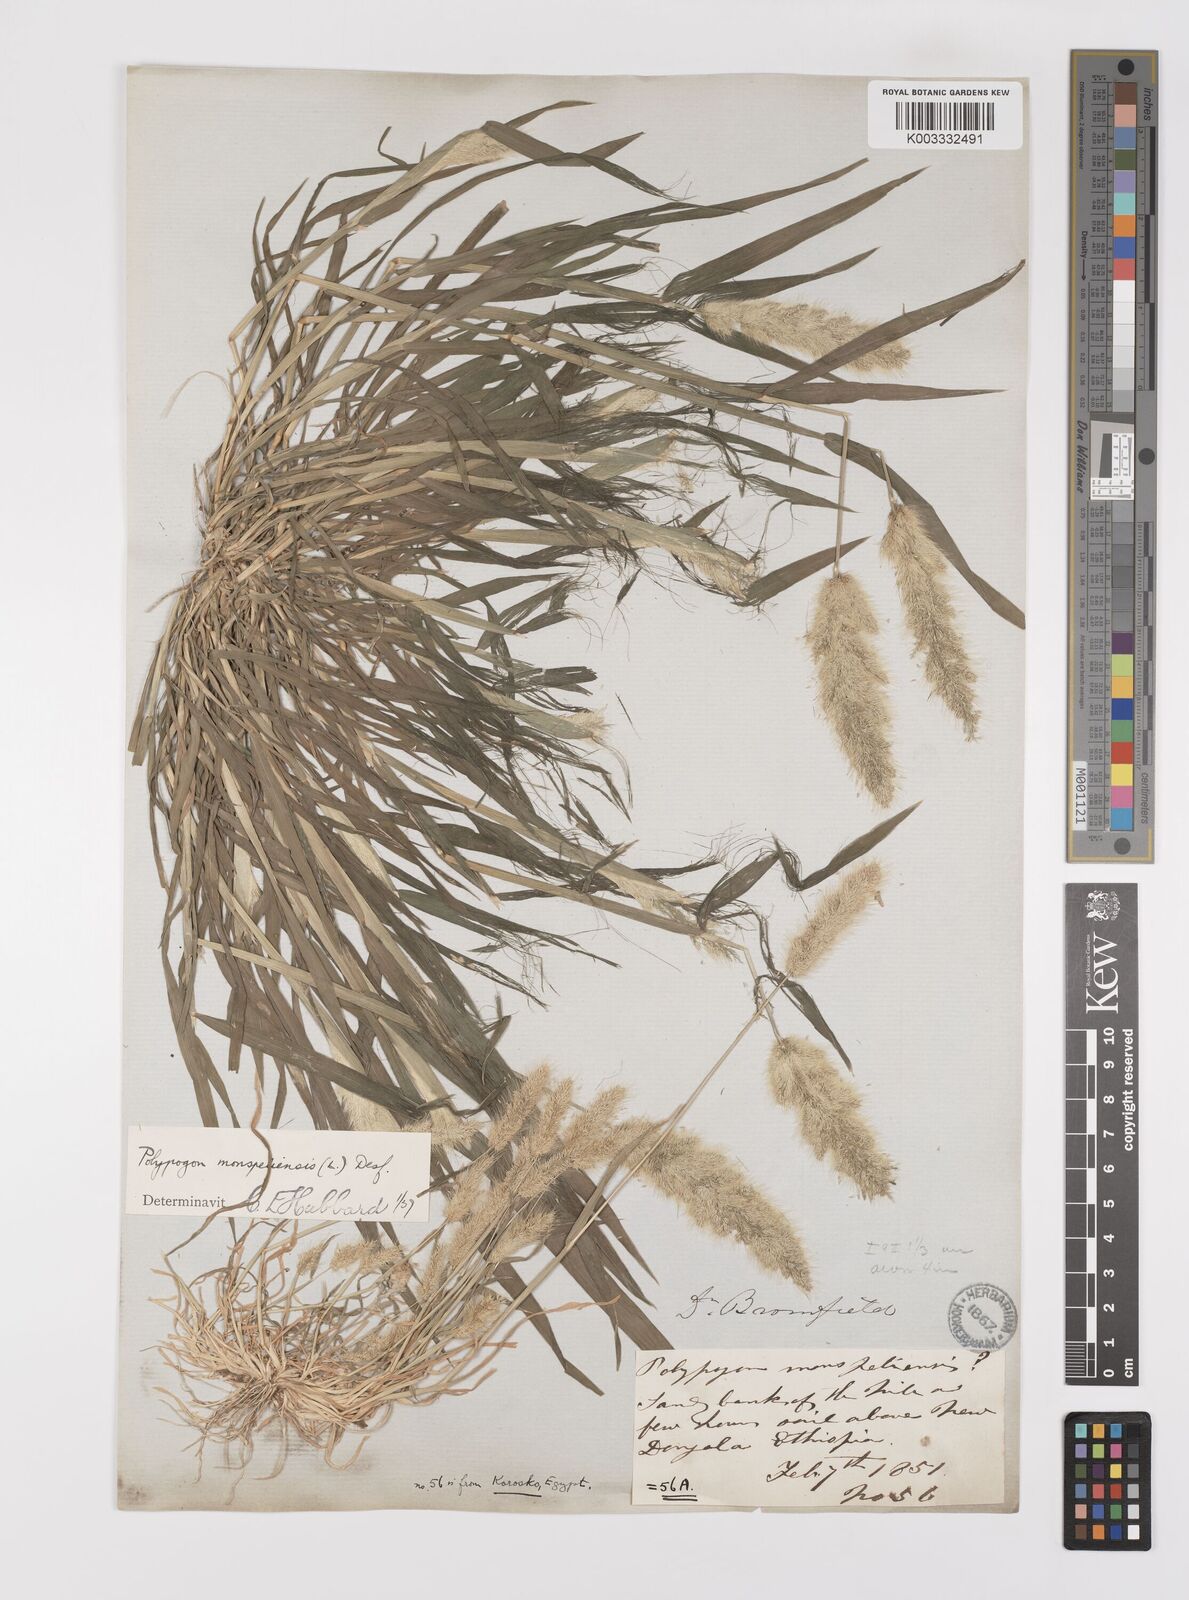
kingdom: Plantae
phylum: Tracheophyta
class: Liliopsida
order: Poales
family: Poaceae
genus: Polypogon
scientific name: Polypogon monspeliensis
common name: Annual rabbitsfoot grass
